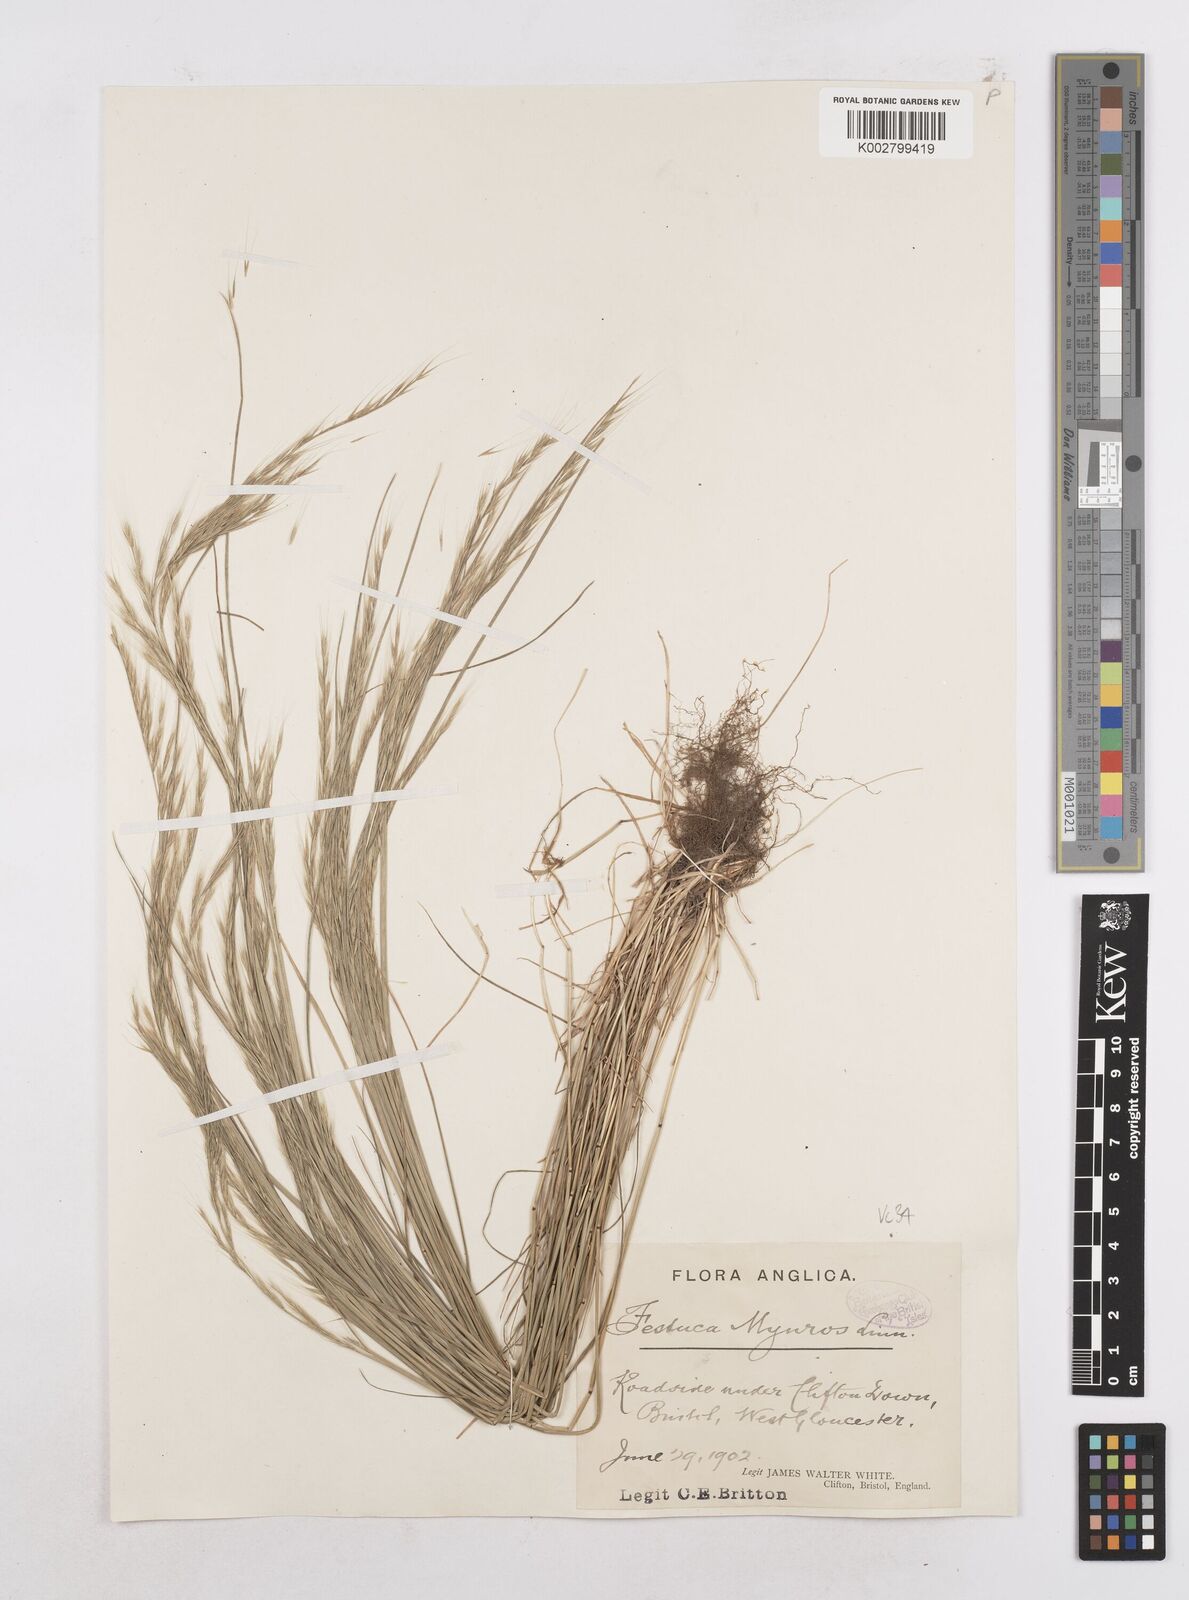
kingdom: Plantae
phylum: Tracheophyta
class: Liliopsida
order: Poales
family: Poaceae
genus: Festuca
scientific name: Festuca myuros
